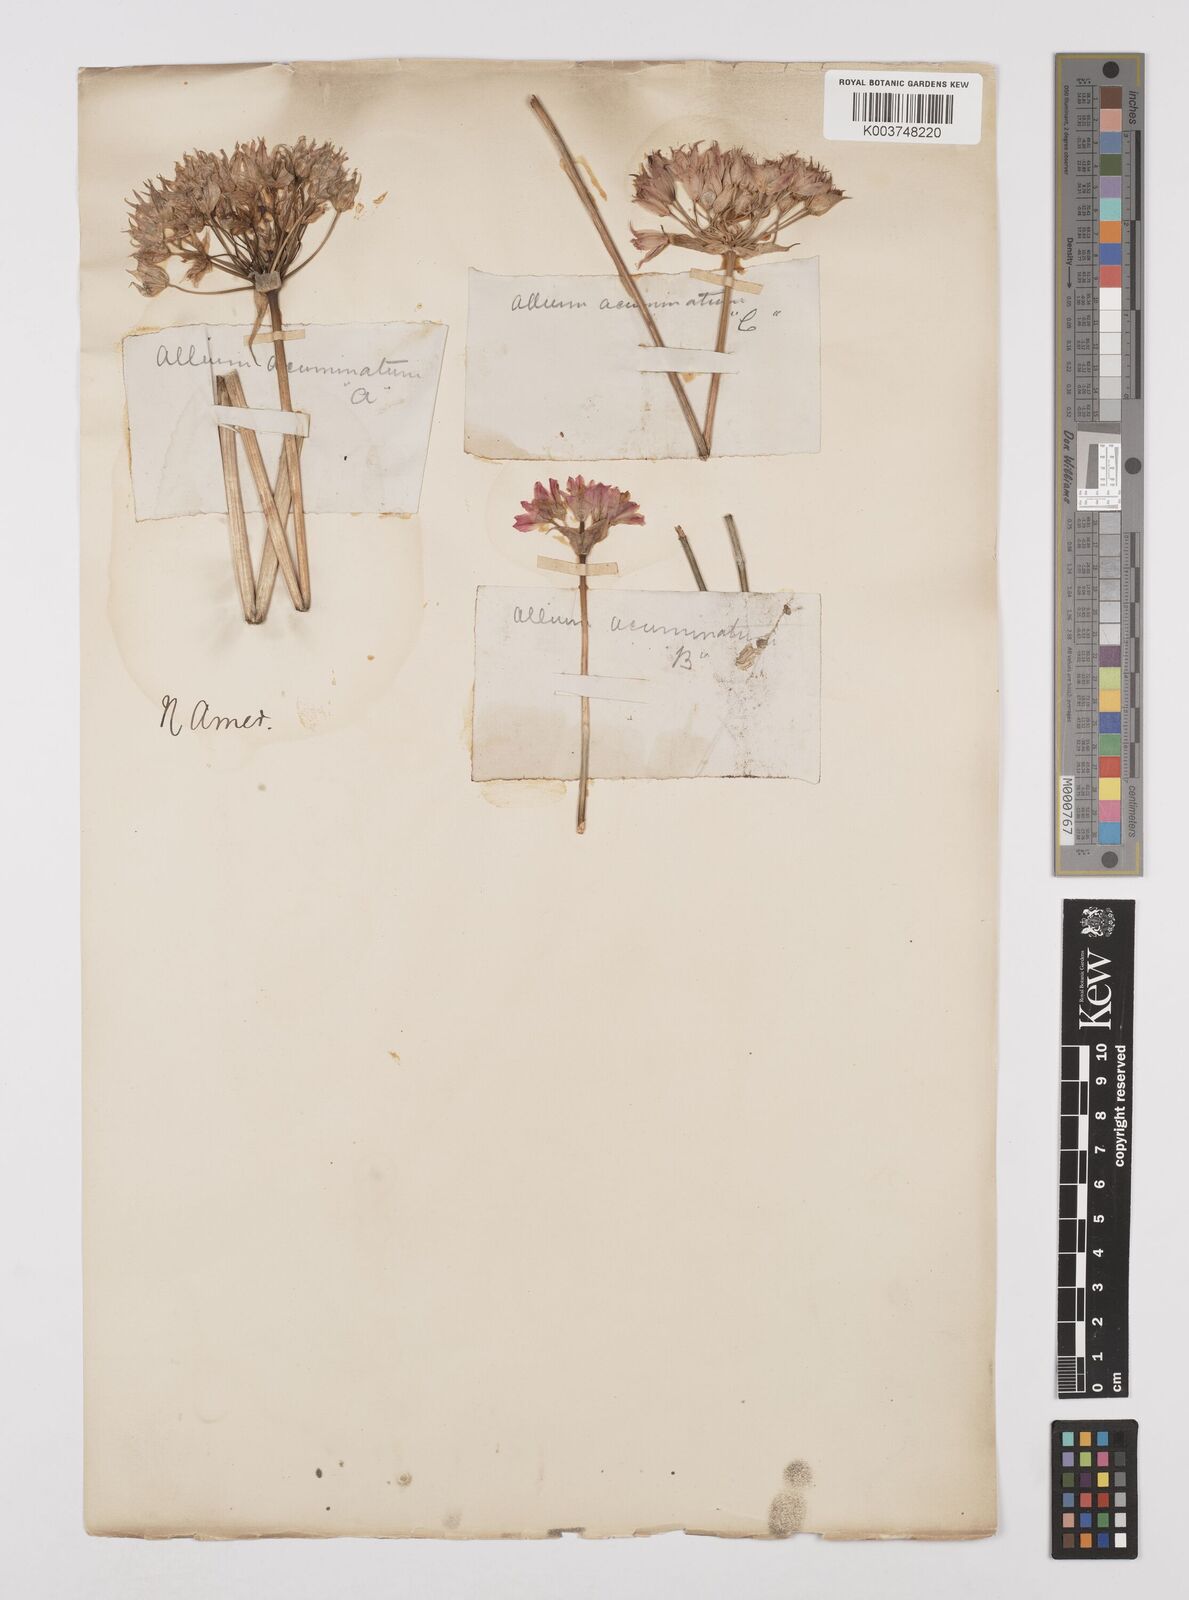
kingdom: Plantae
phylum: Tracheophyta
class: Liliopsida
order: Asparagales
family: Amaryllidaceae
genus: Allium
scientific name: Allium acuminatum
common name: Hooker's onion
